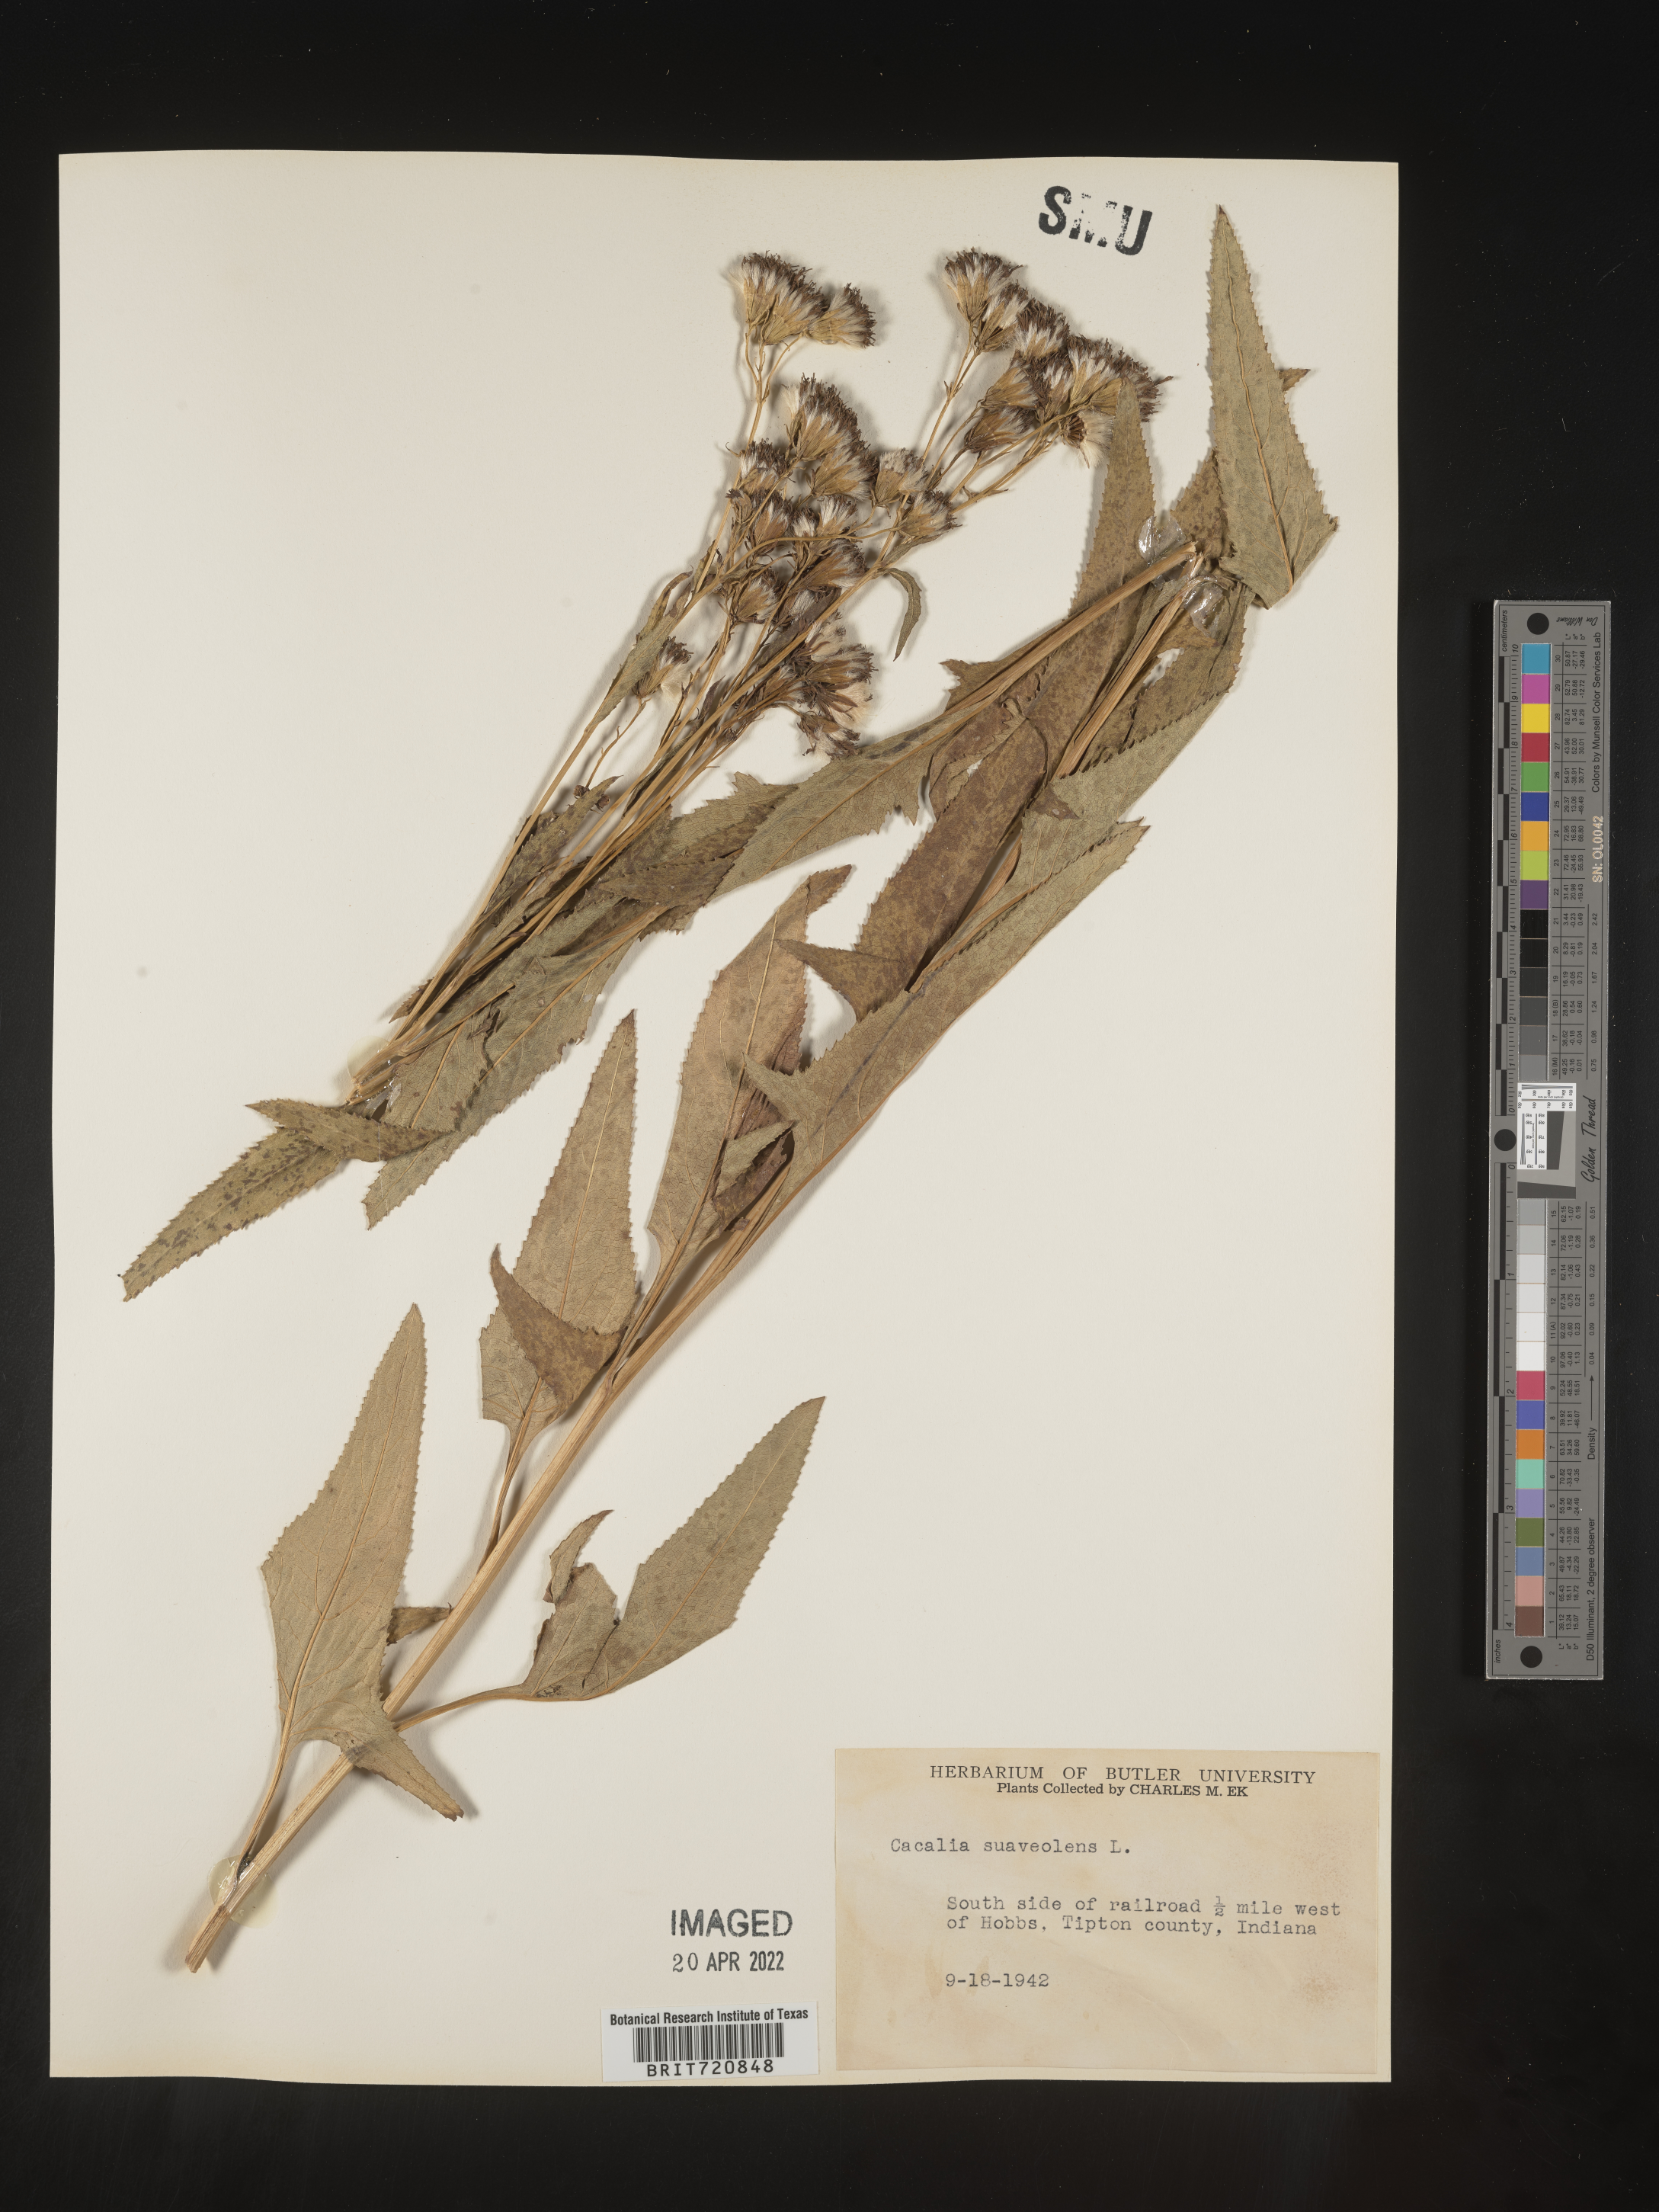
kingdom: Plantae
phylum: Tracheophyta
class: Magnoliopsida
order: Asterales
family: Asteraceae
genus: Hasteola
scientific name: Hasteola suaveolens
